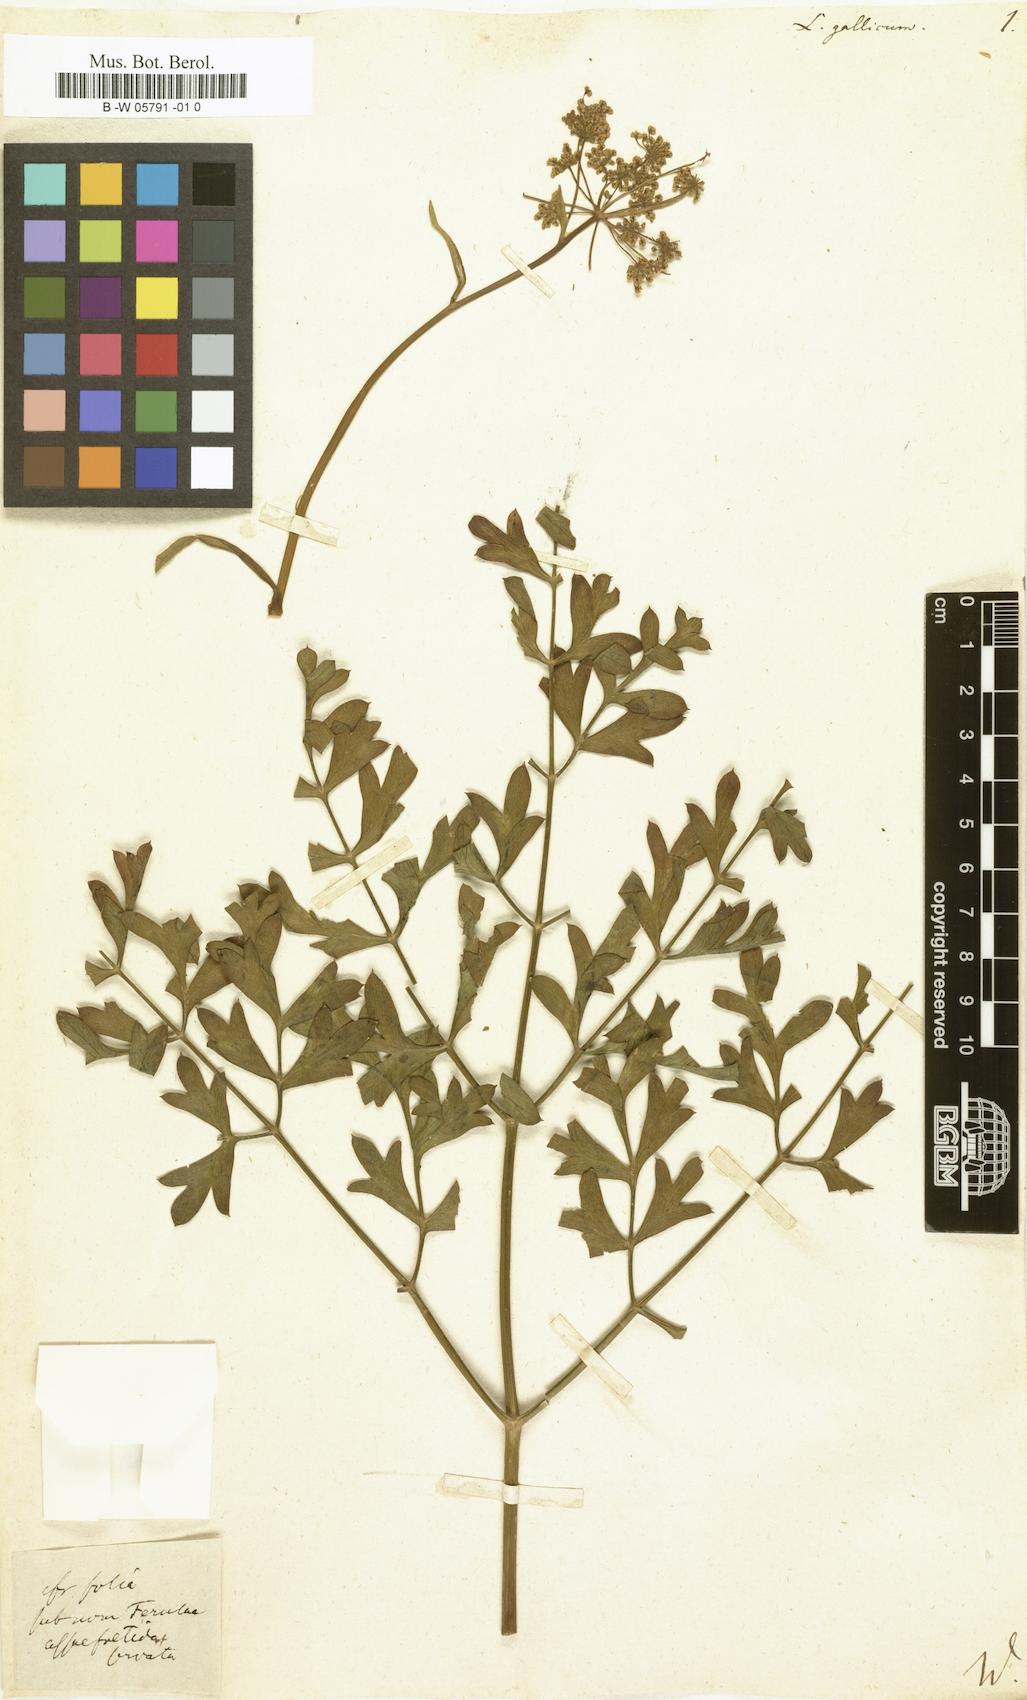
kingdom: Plantae
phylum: Tracheophyta
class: Magnoliopsida
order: Apiales
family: Apiaceae
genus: Laserpitium
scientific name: Laserpitium gallicum
